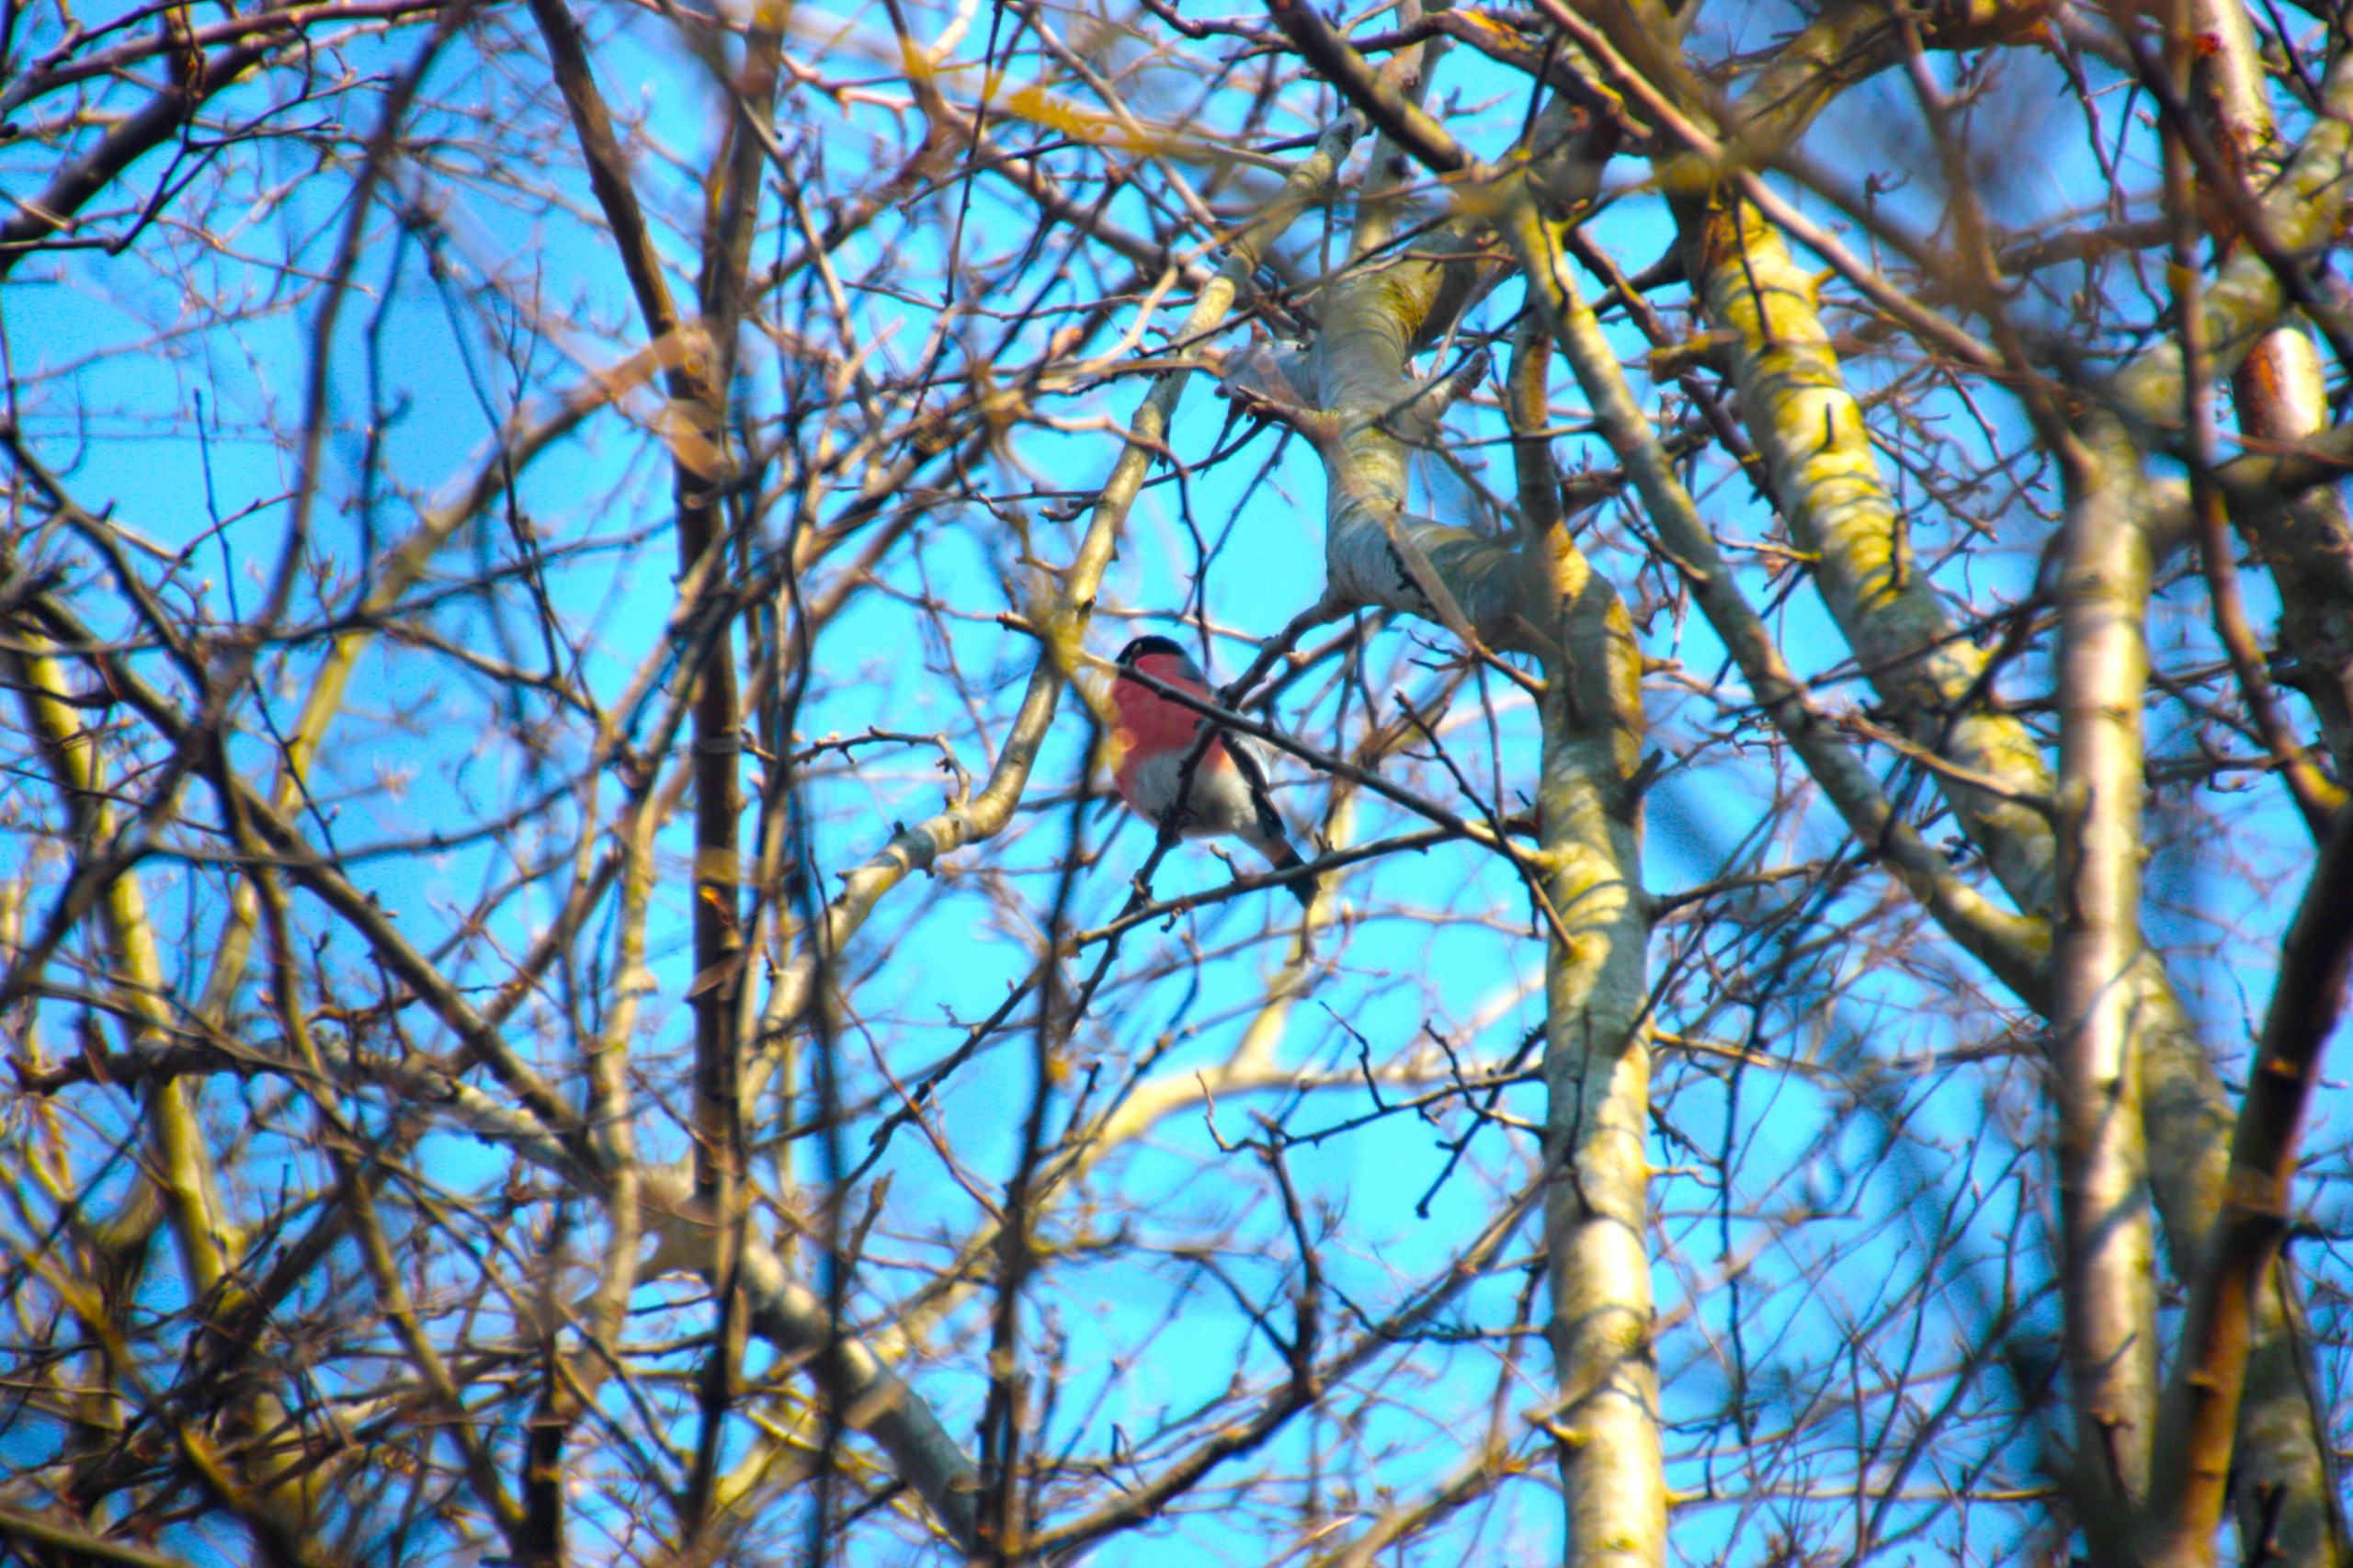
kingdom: Animalia
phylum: Chordata
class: Aves
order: Passeriformes
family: Fringillidae
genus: Pyrrhula
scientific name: Pyrrhula pyrrhula
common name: Dompap
